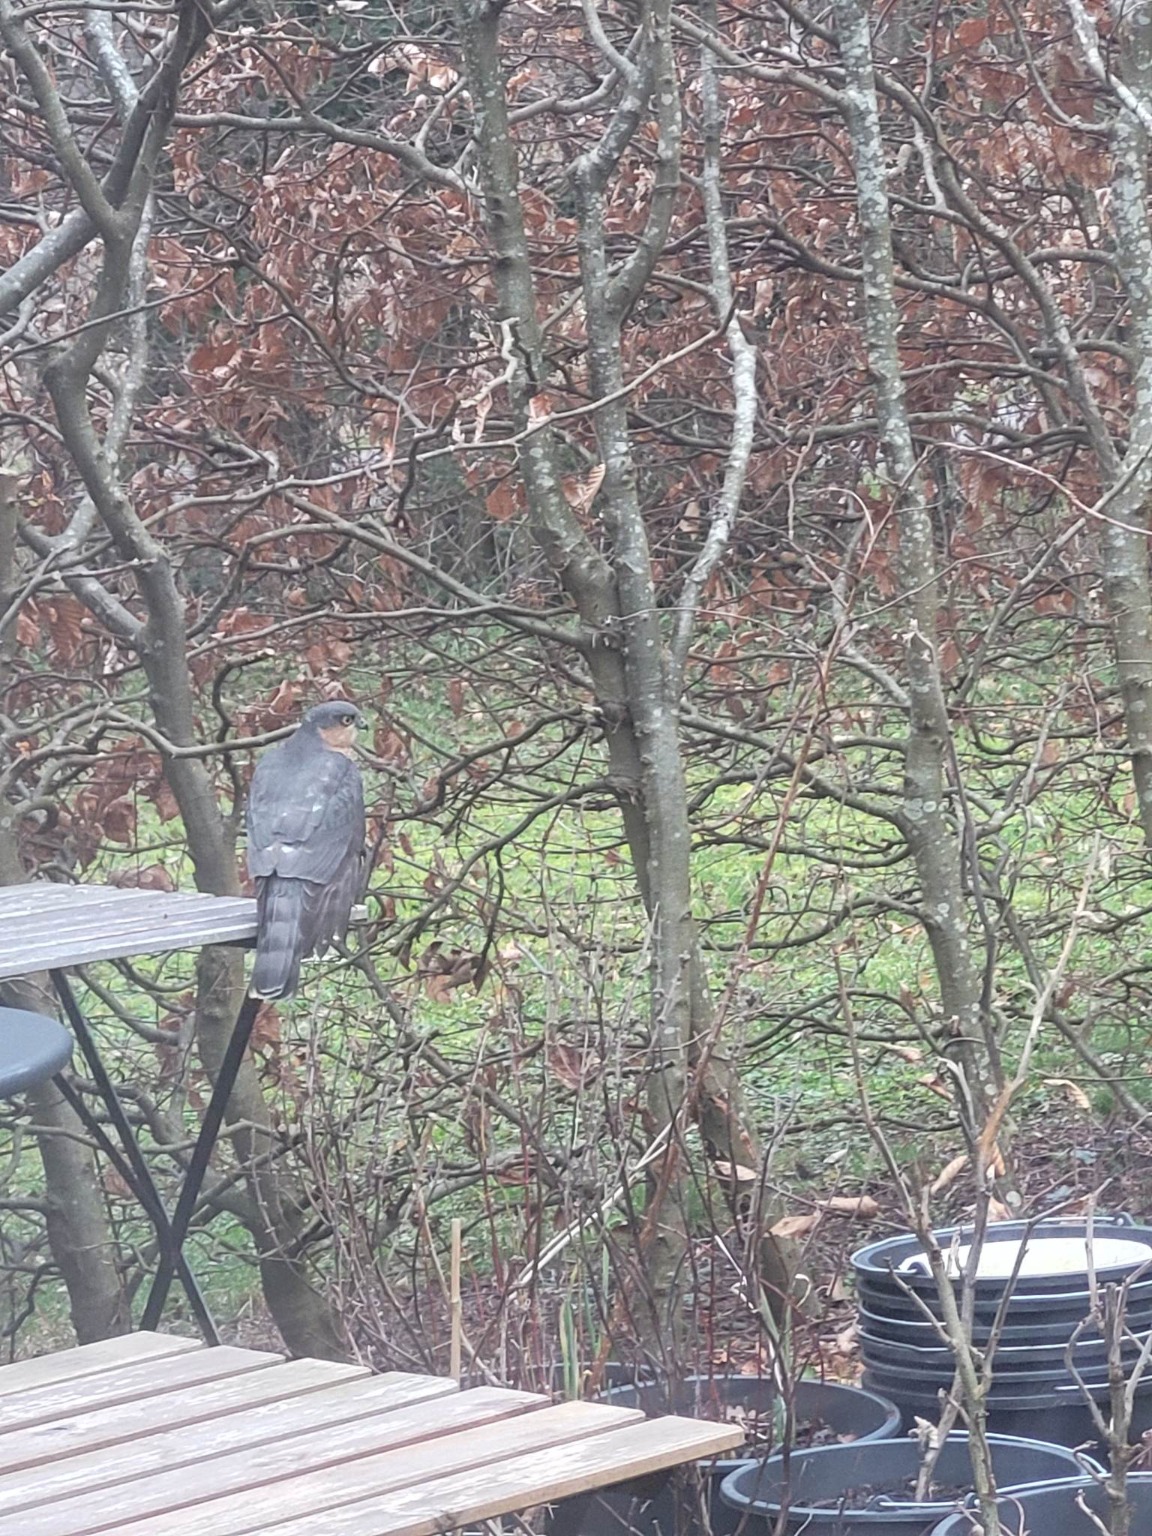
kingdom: Animalia
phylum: Chordata
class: Aves
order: Accipitriformes
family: Accipitridae
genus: Accipiter
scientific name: Accipiter nisus
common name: Spurvehøg
